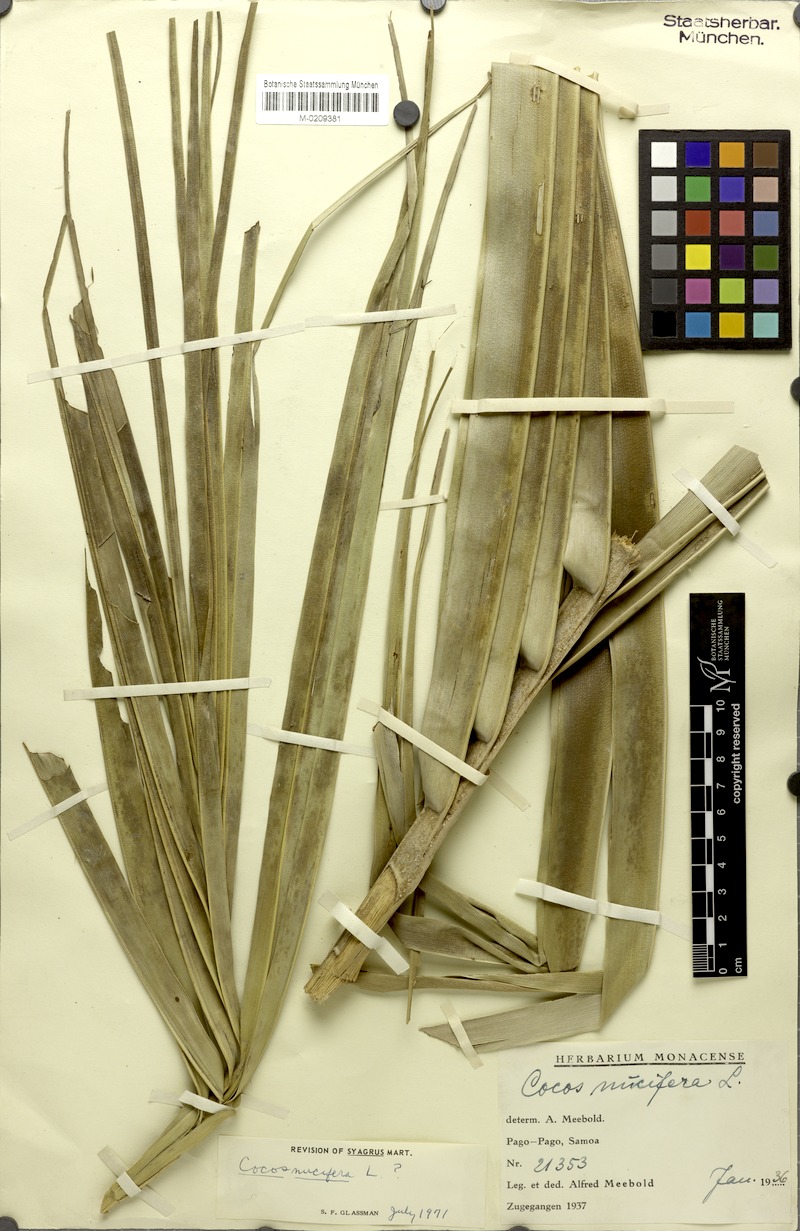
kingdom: Plantae
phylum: Tracheophyta
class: Liliopsida
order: Arecales
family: Arecaceae
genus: Cocos
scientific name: Cocos nucifera
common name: Coconut palm
